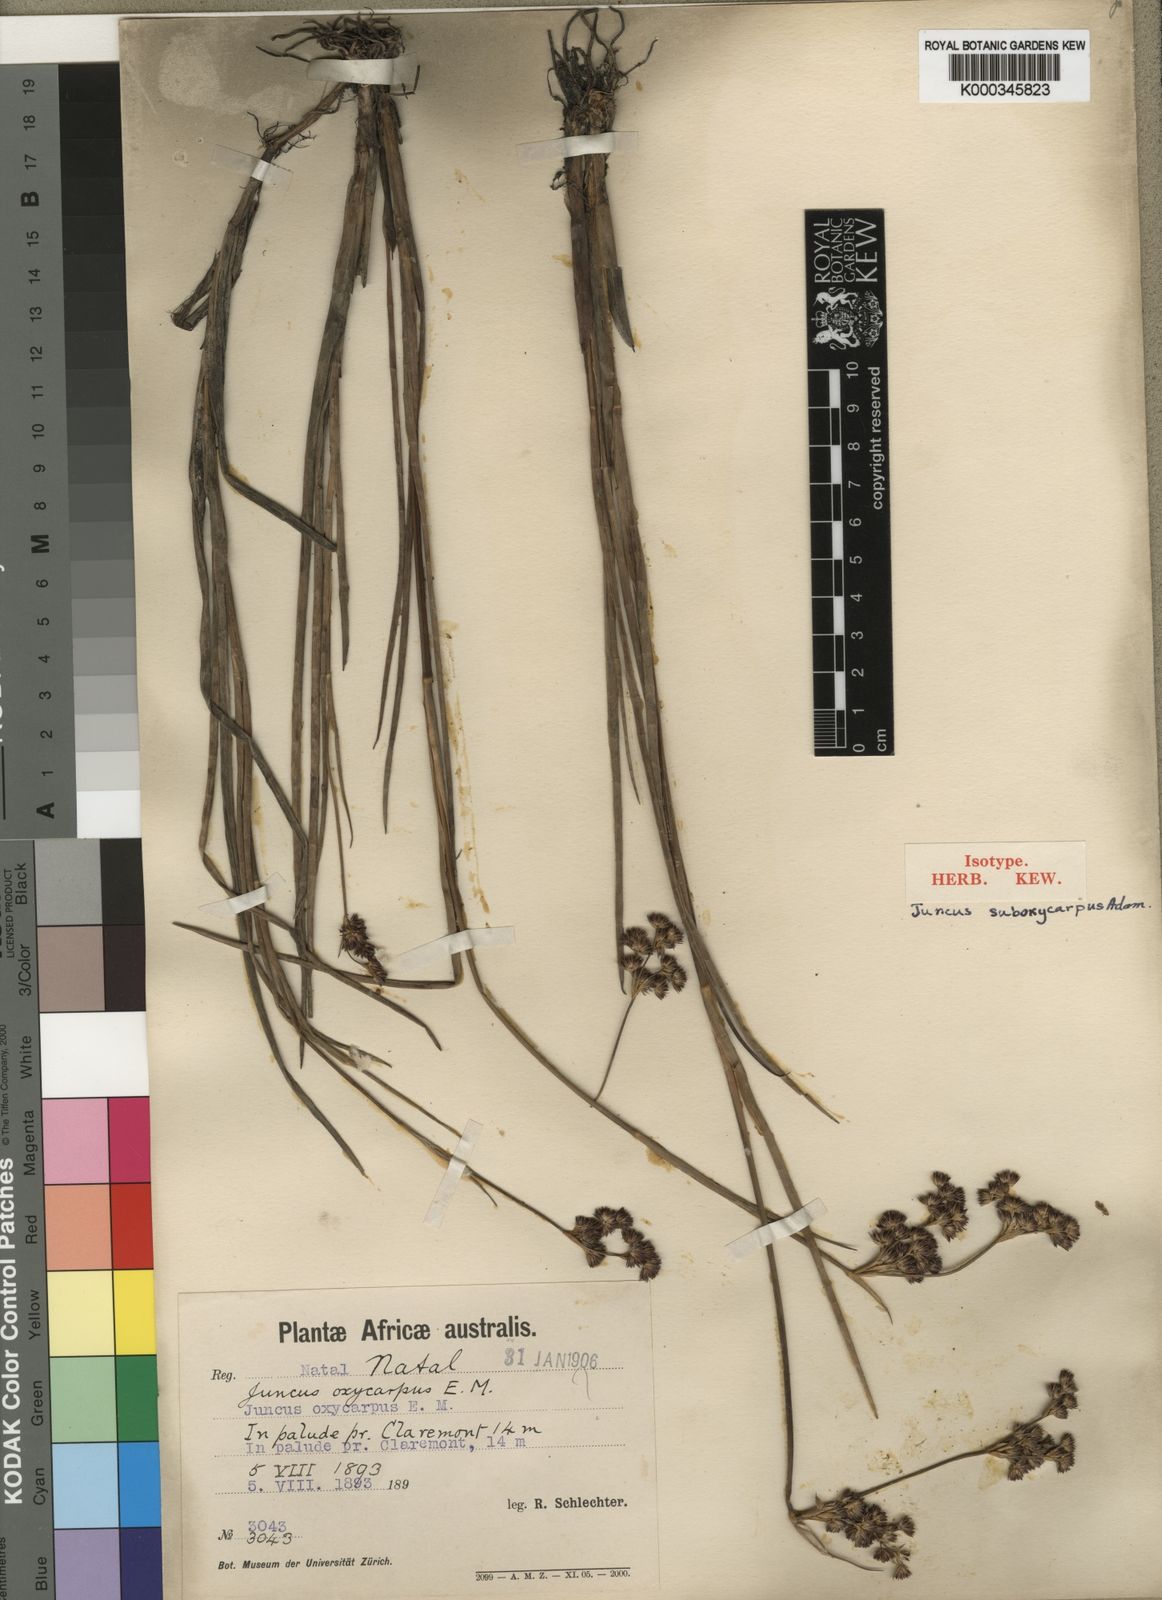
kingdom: Plantae
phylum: Tracheophyta
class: Liliopsida
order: Poales
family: Juncaceae
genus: Juncus
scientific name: Juncus oxycarpus
